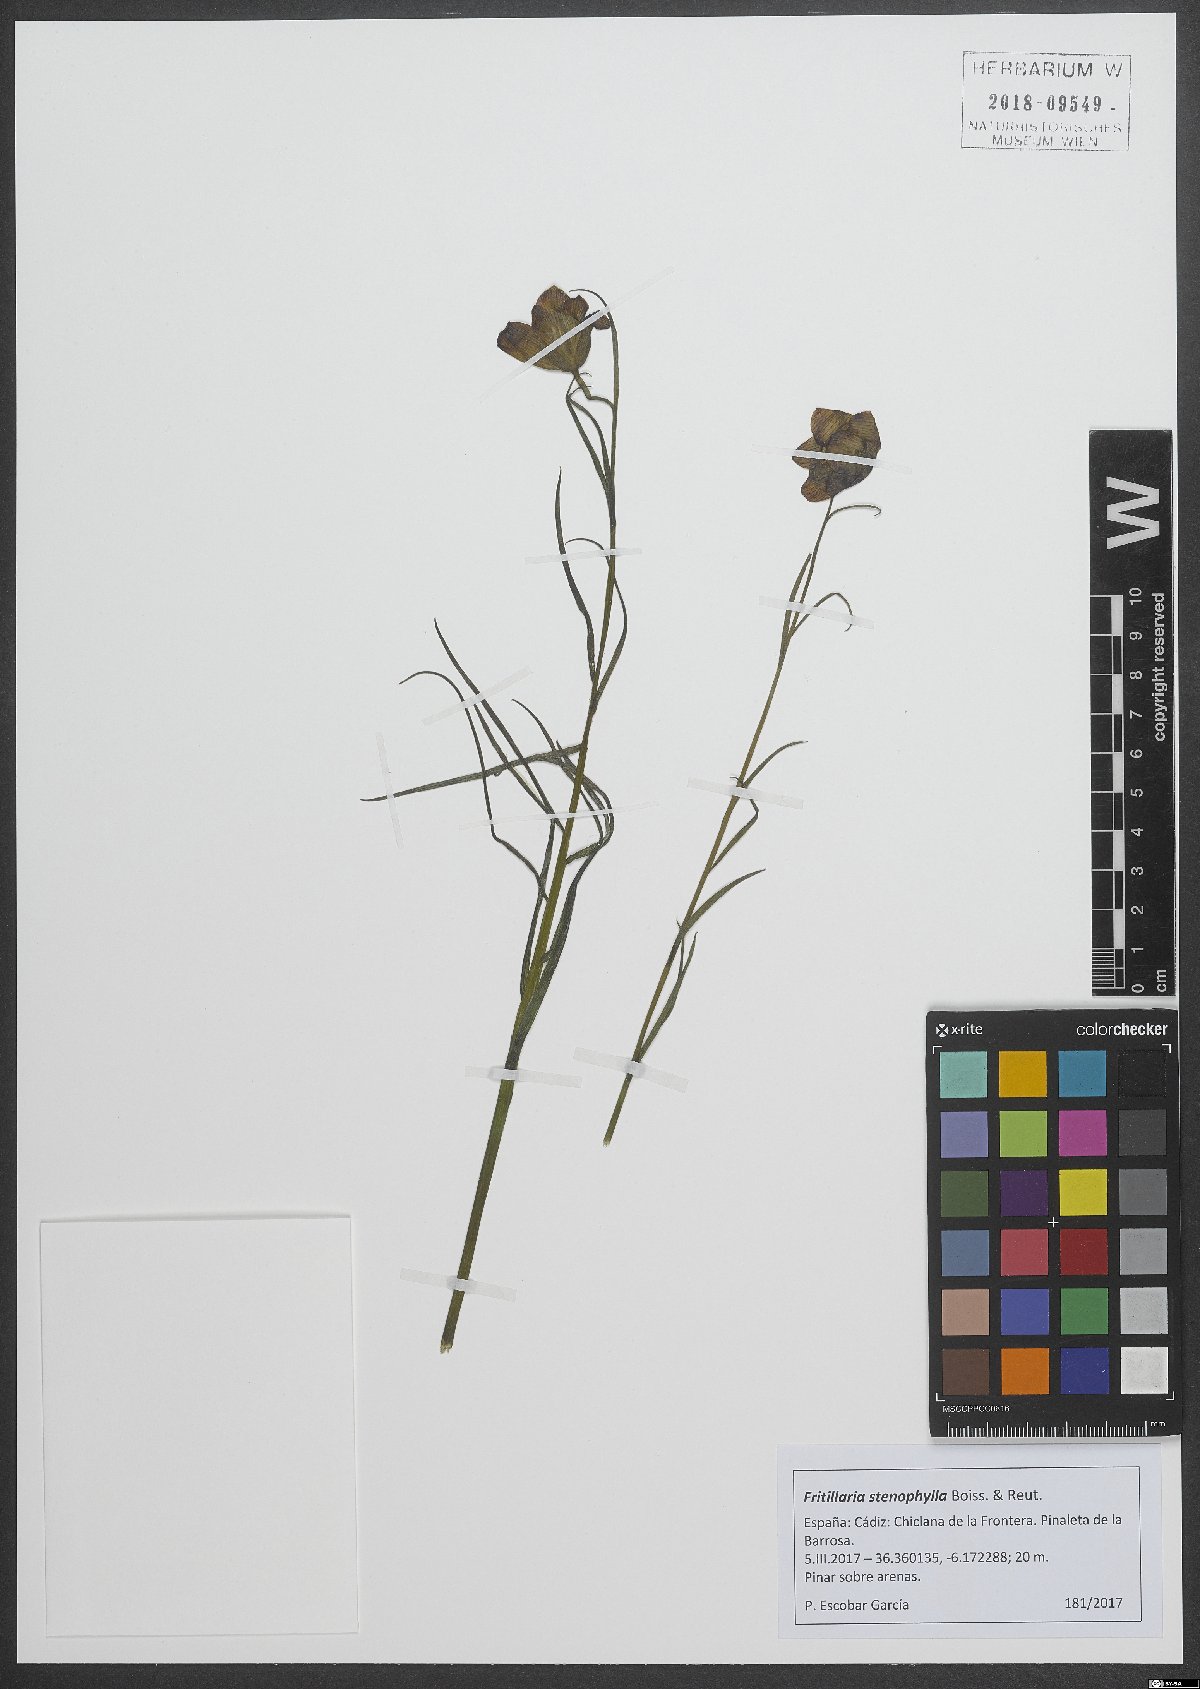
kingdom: Plantae
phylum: Tracheophyta
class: Liliopsida
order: Liliales
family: Liliaceae
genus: Fritillaria
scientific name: Fritillaria lusitanica
